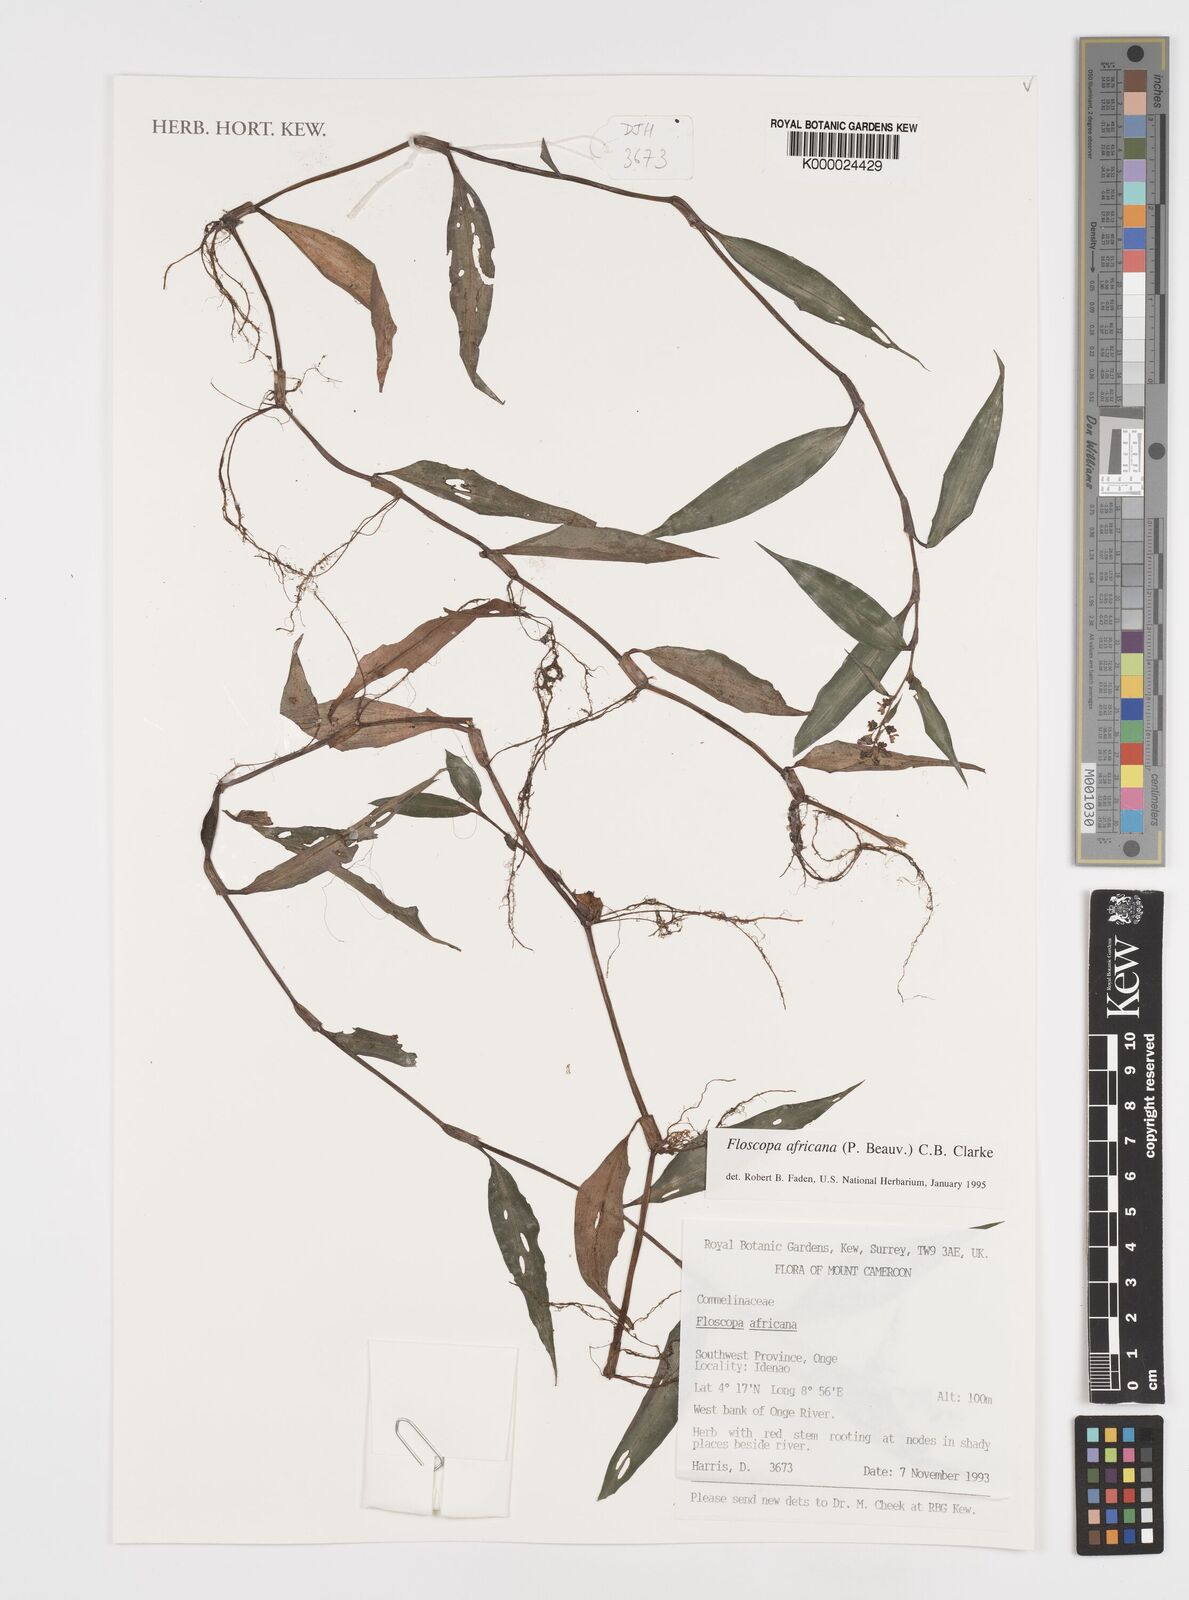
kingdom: Plantae
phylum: Tracheophyta
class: Liliopsida
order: Commelinales
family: Commelinaceae
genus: Floscopa
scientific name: Floscopa africana
